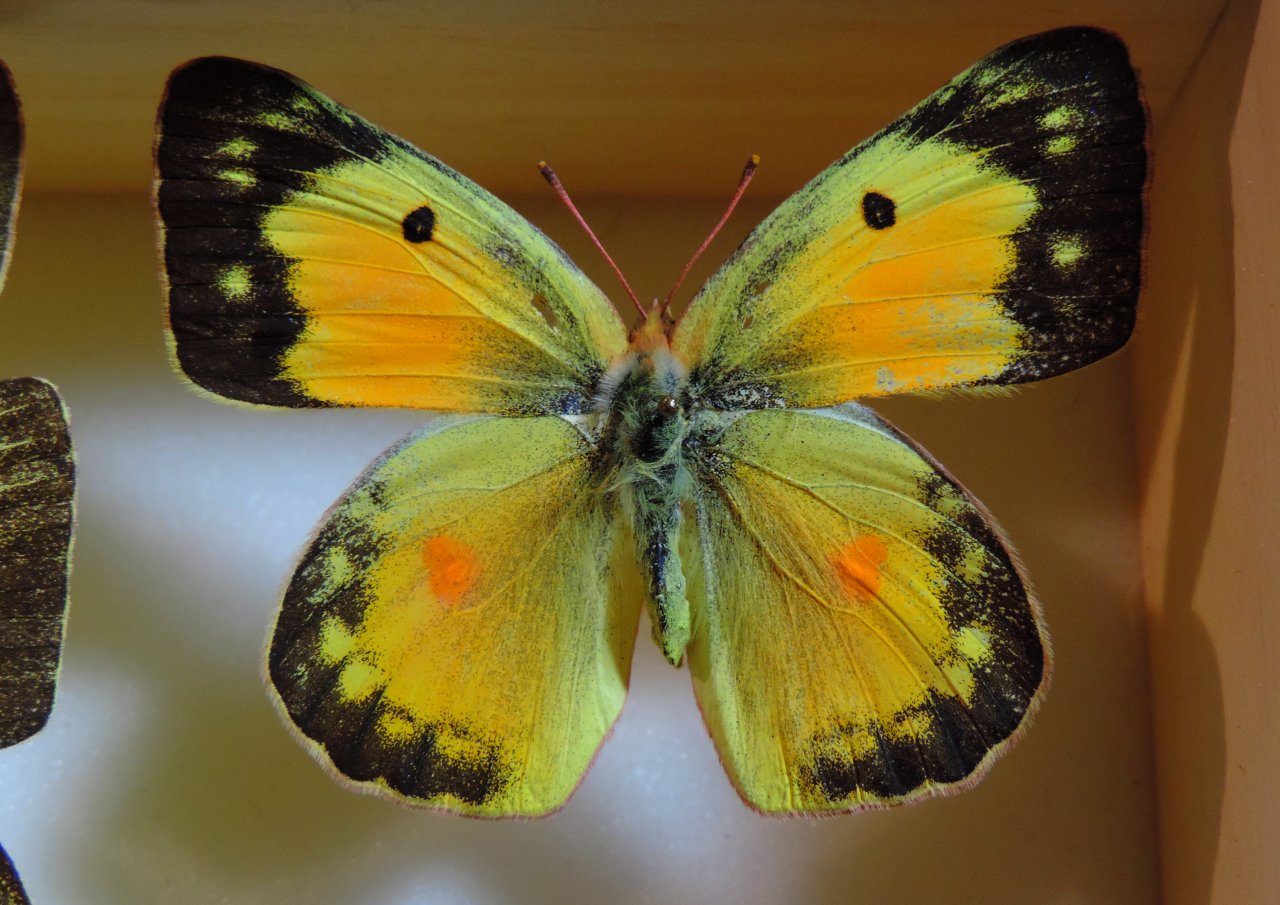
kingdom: Animalia
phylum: Arthropoda
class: Insecta
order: Lepidoptera
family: Pieridae
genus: Colias
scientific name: Colias eurytheme
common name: Orange Sulphur
